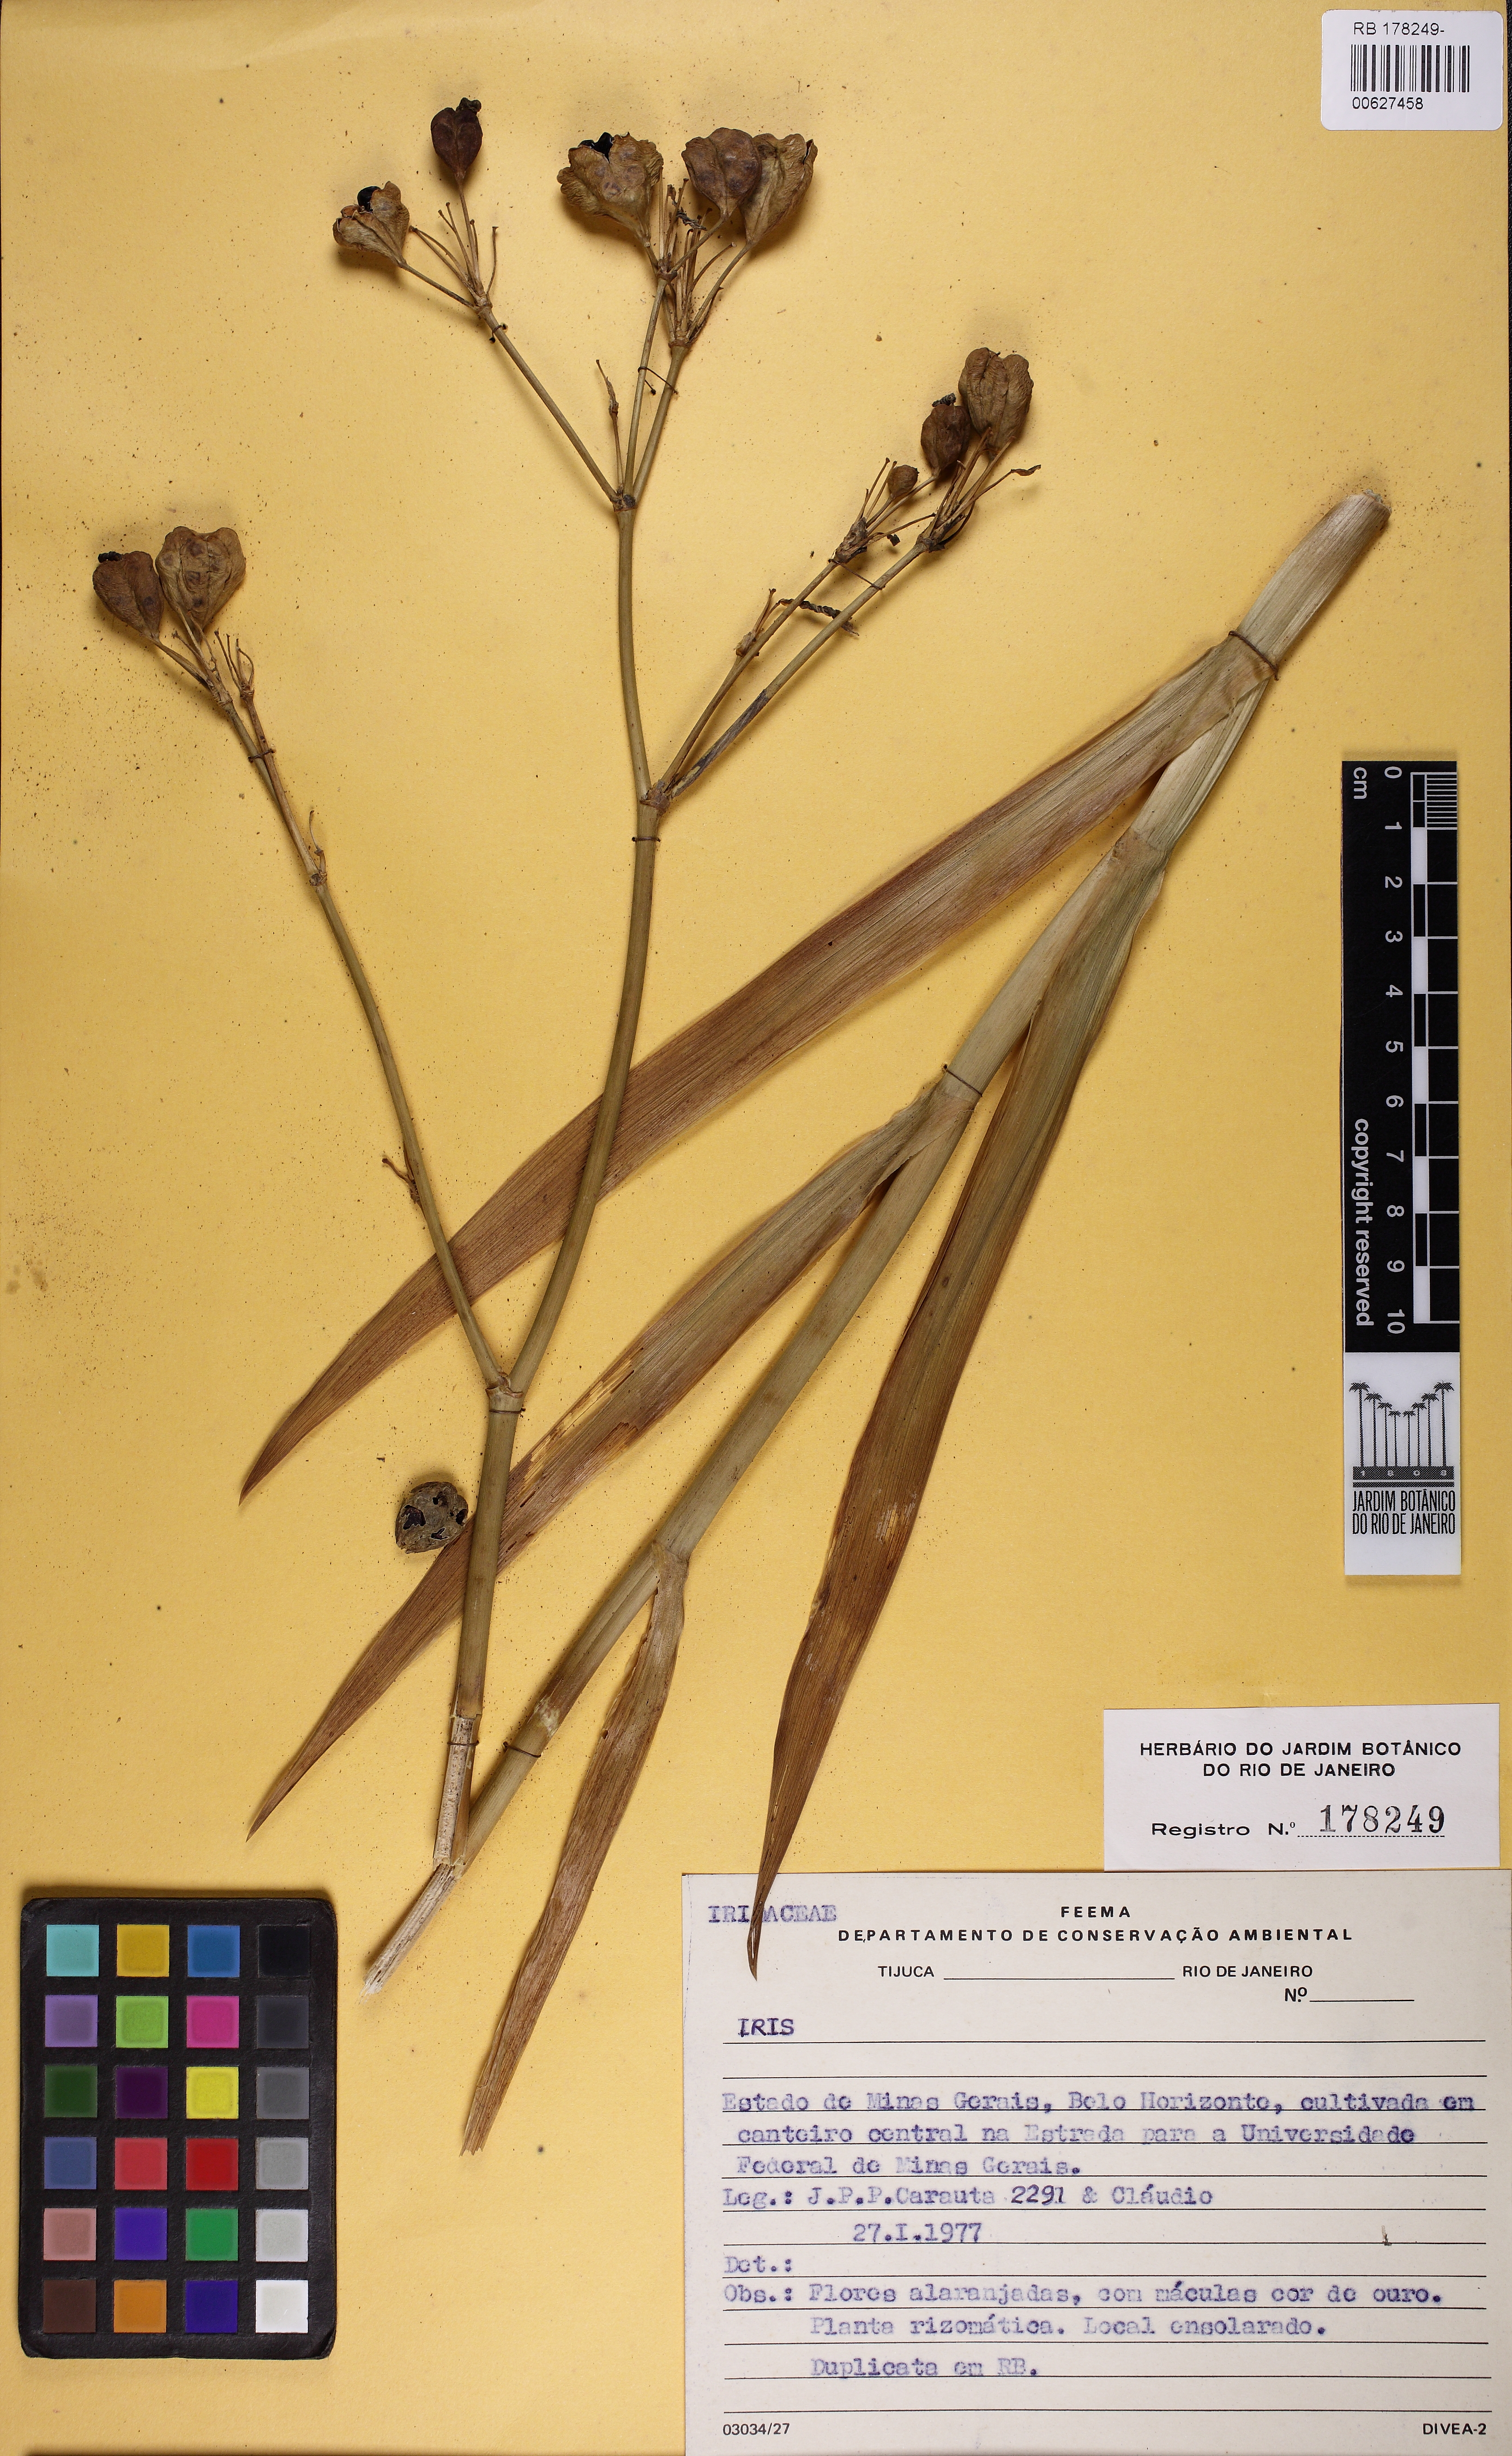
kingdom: Plantae
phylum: Tracheophyta
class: Liliopsida
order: Asparagales
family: Iridaceae
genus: Iris
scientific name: Iris
